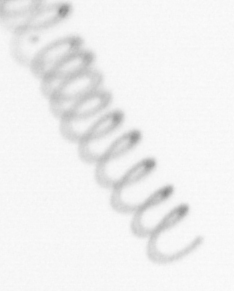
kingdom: Chromista
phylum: Ochrophyta
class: Bacillariophyceae
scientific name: Bacillariophyceae
